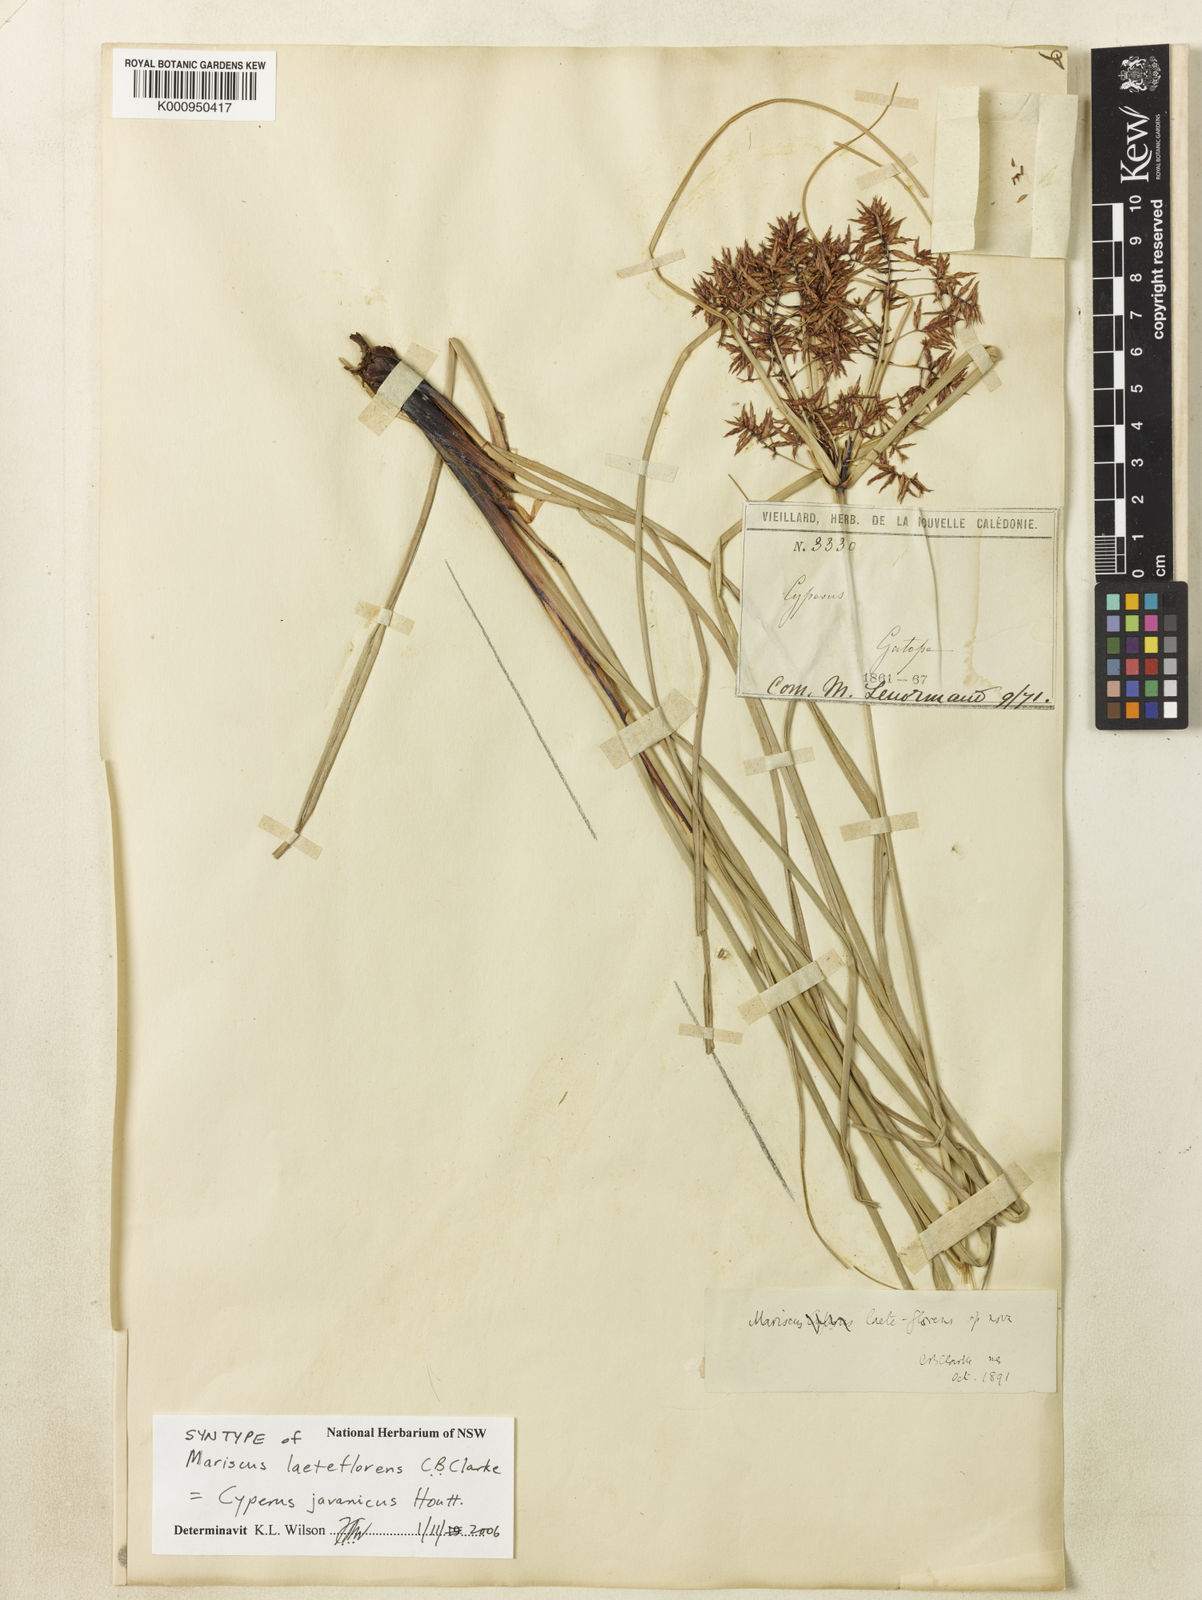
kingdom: Plantae
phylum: Tracheophyta
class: Liliopsida
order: Poales
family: Cyperaceae
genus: Cyperus
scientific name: Cyperus
